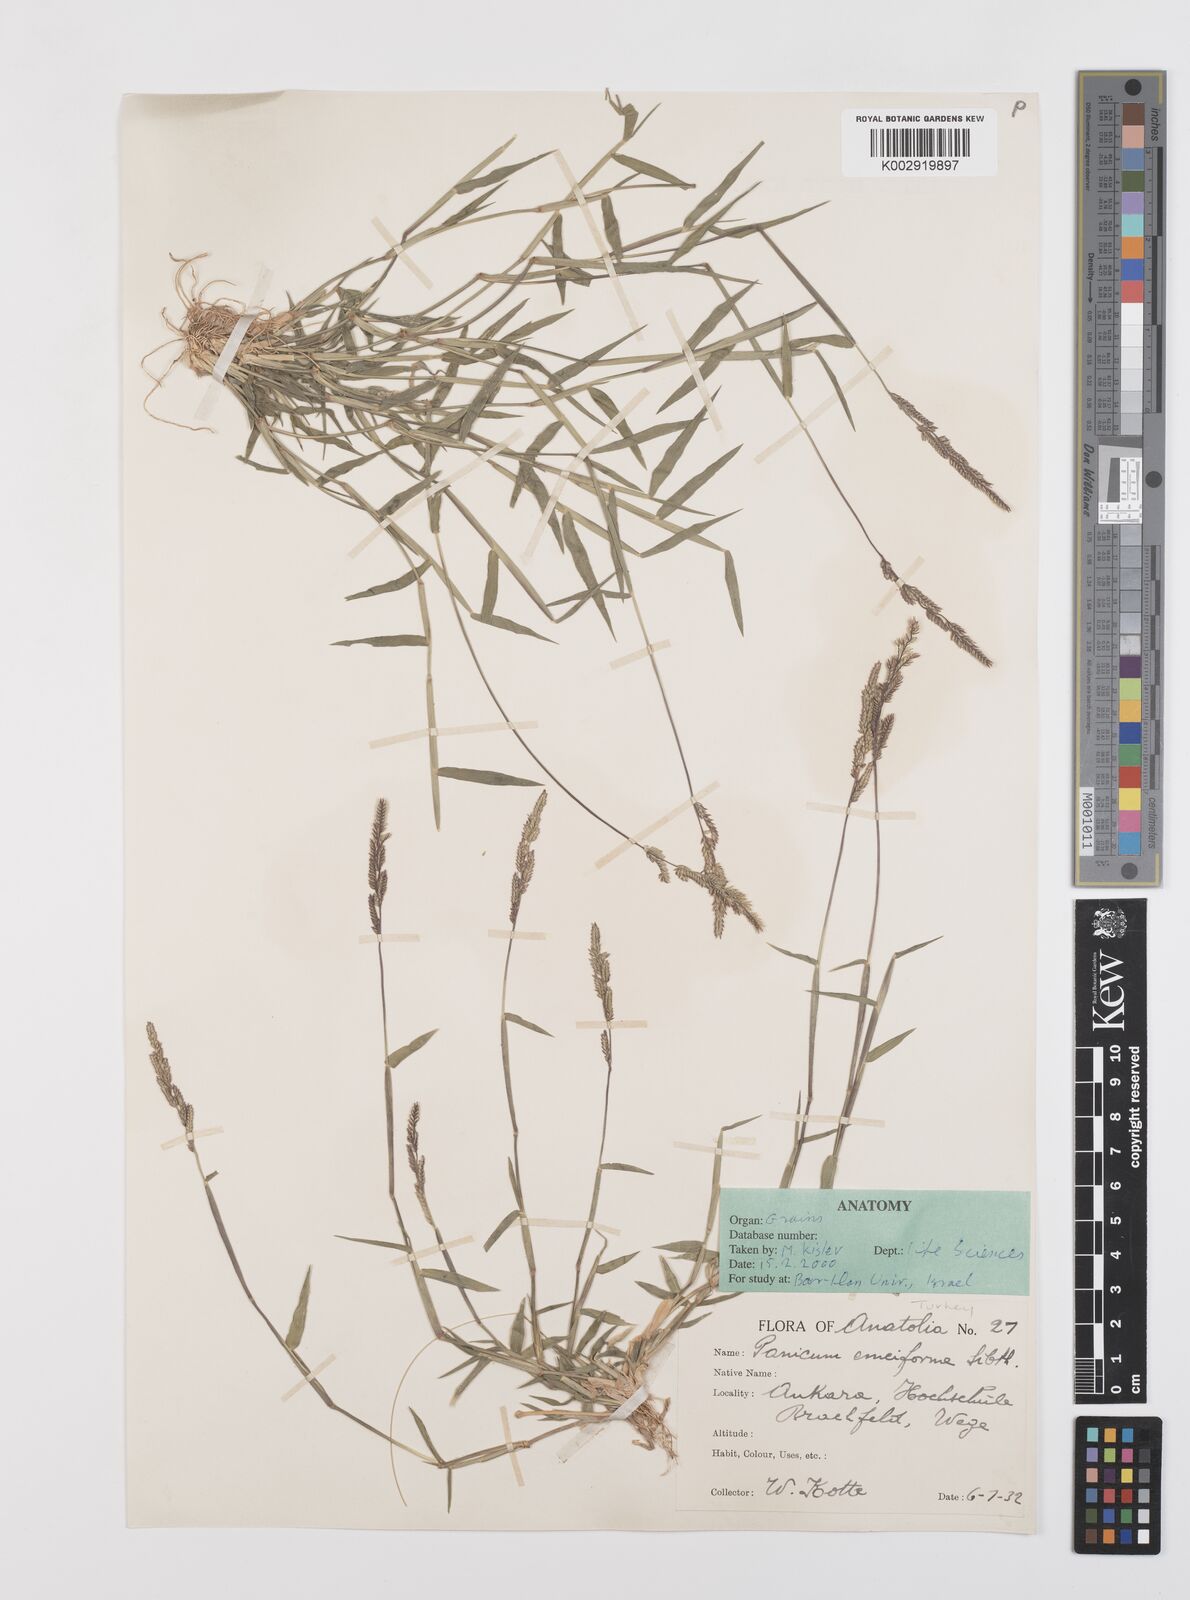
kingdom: Plantae
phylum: Tracheophyta
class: Liliopsida
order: Poales
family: Poaceae
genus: Moorochloa
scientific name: Moorochloa eruciformis
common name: Sweet signalgrass
